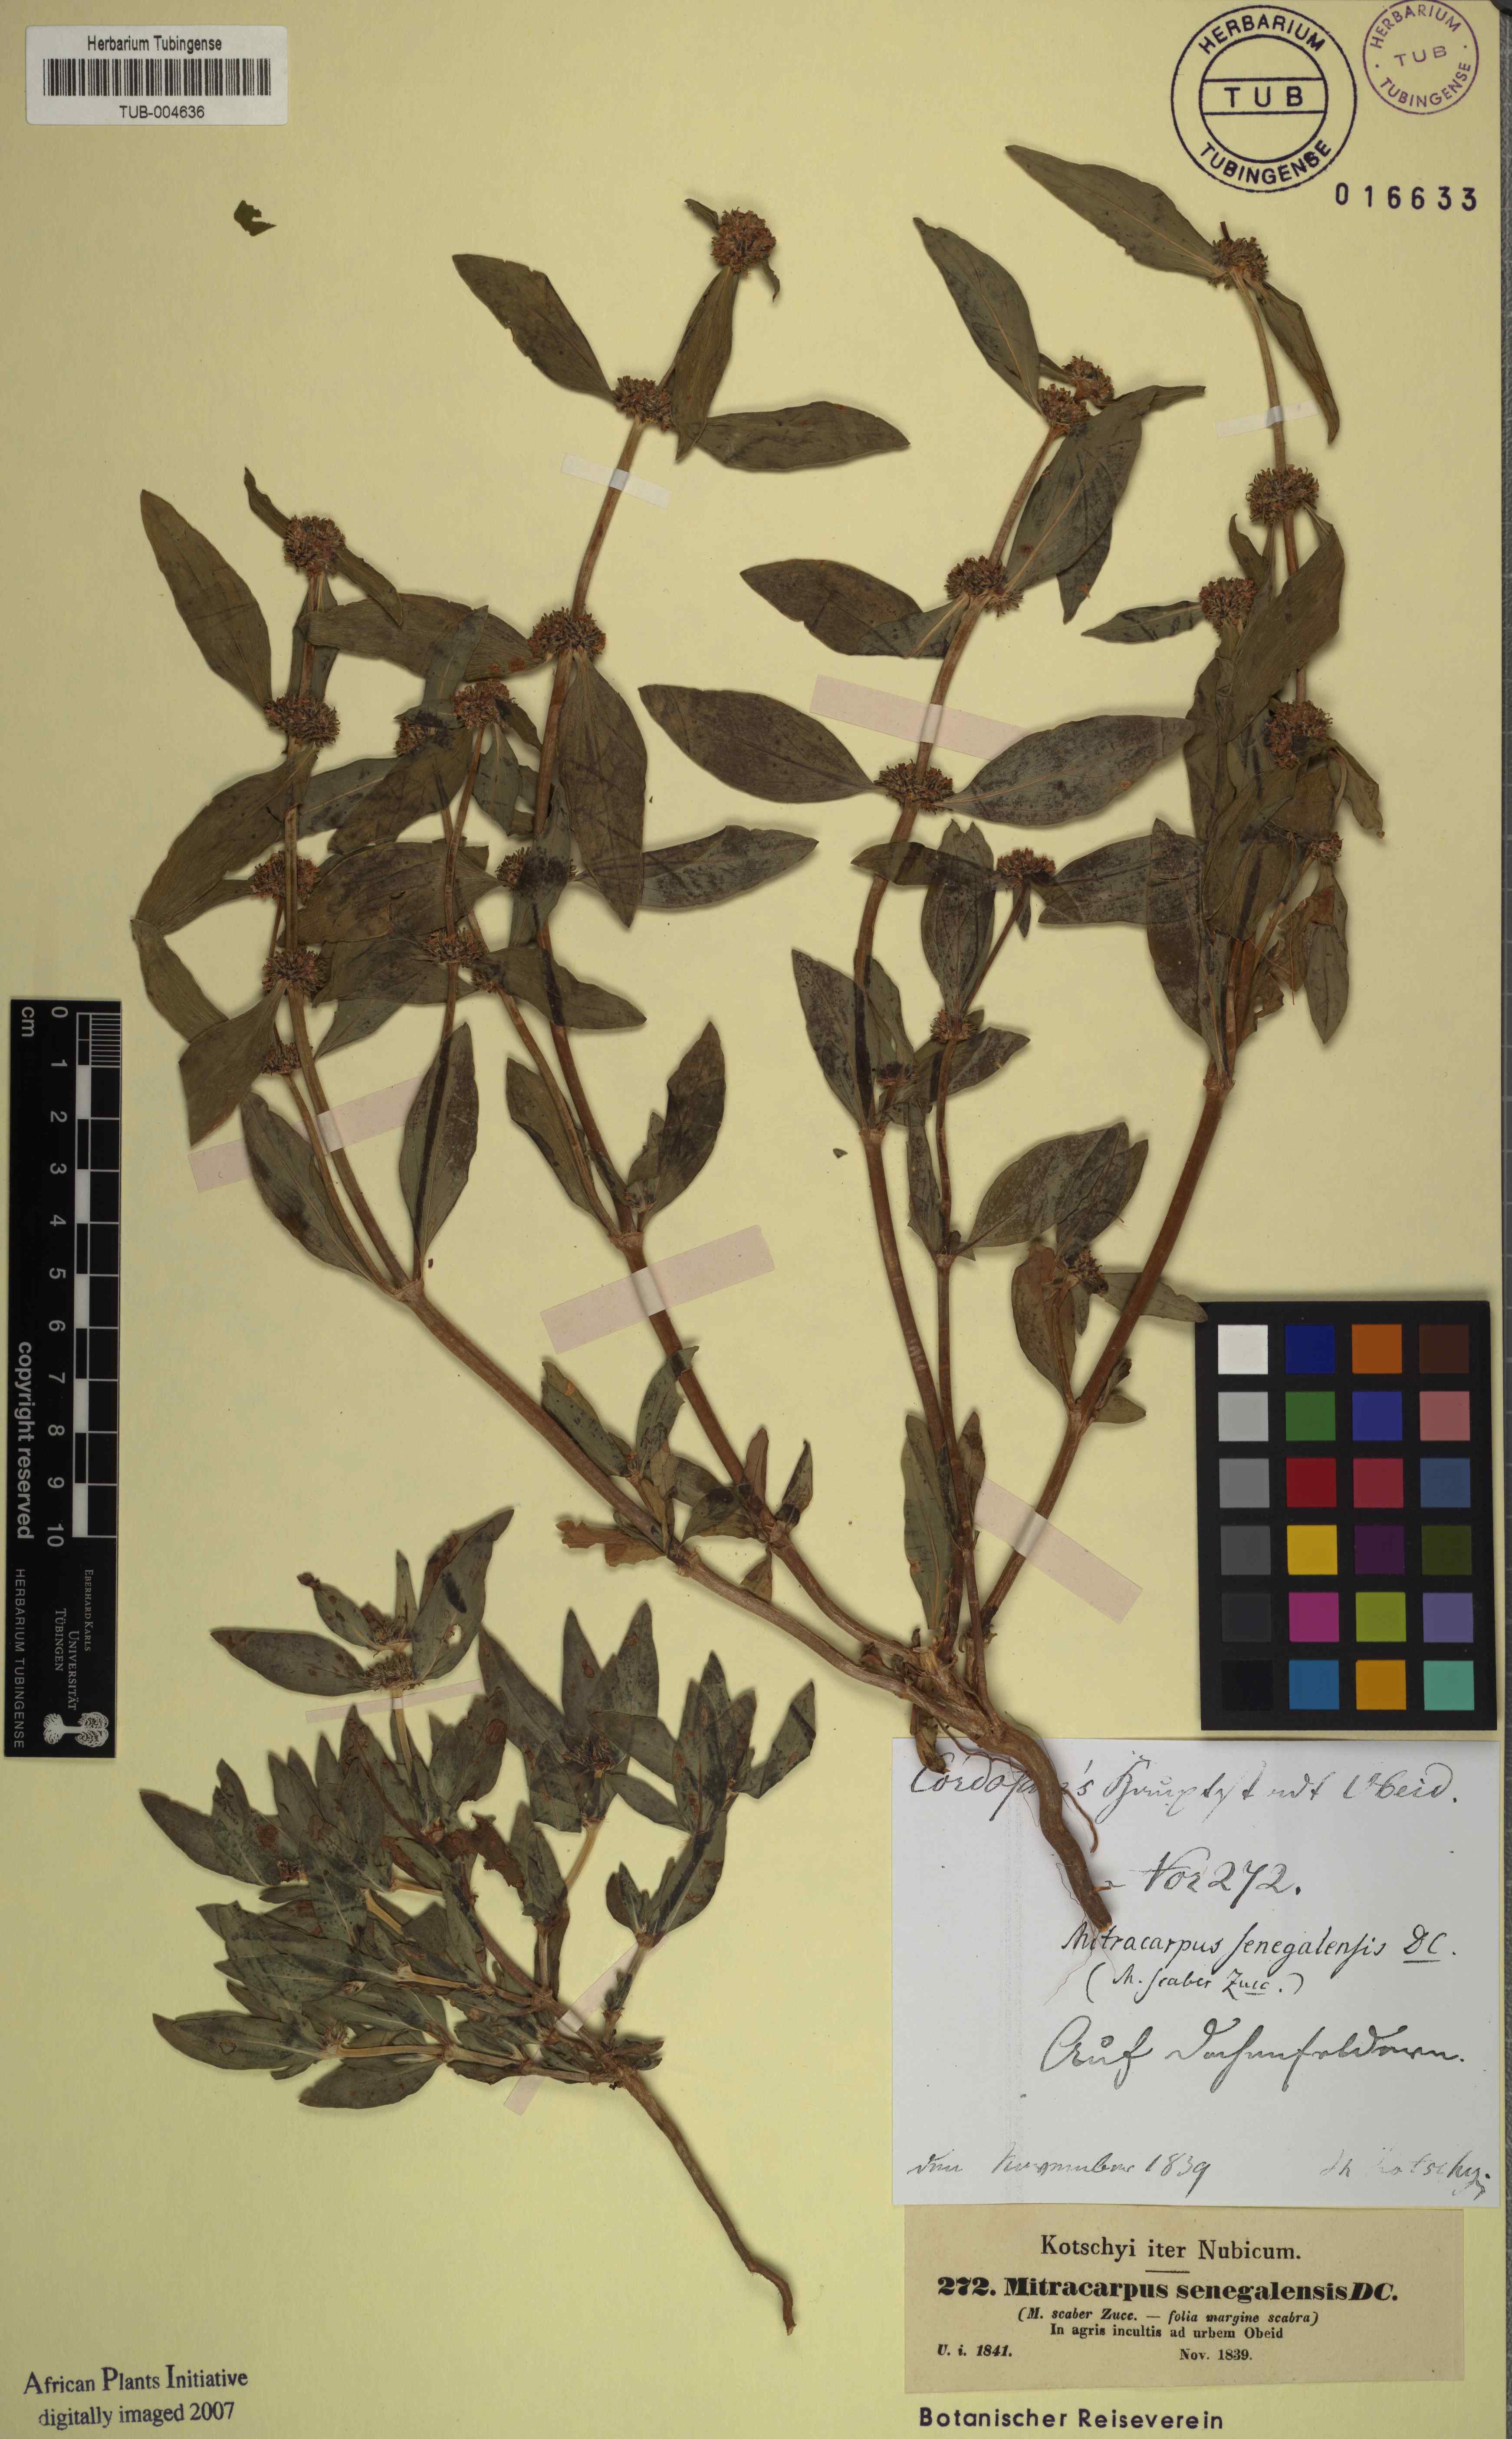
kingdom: Plantae
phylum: Tracheophyta
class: Magnoliopsida
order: Gentianales
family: Rubiaceae
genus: Mitracarpus
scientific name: Mitracarpus hirtus
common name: Tropical girdlepod
